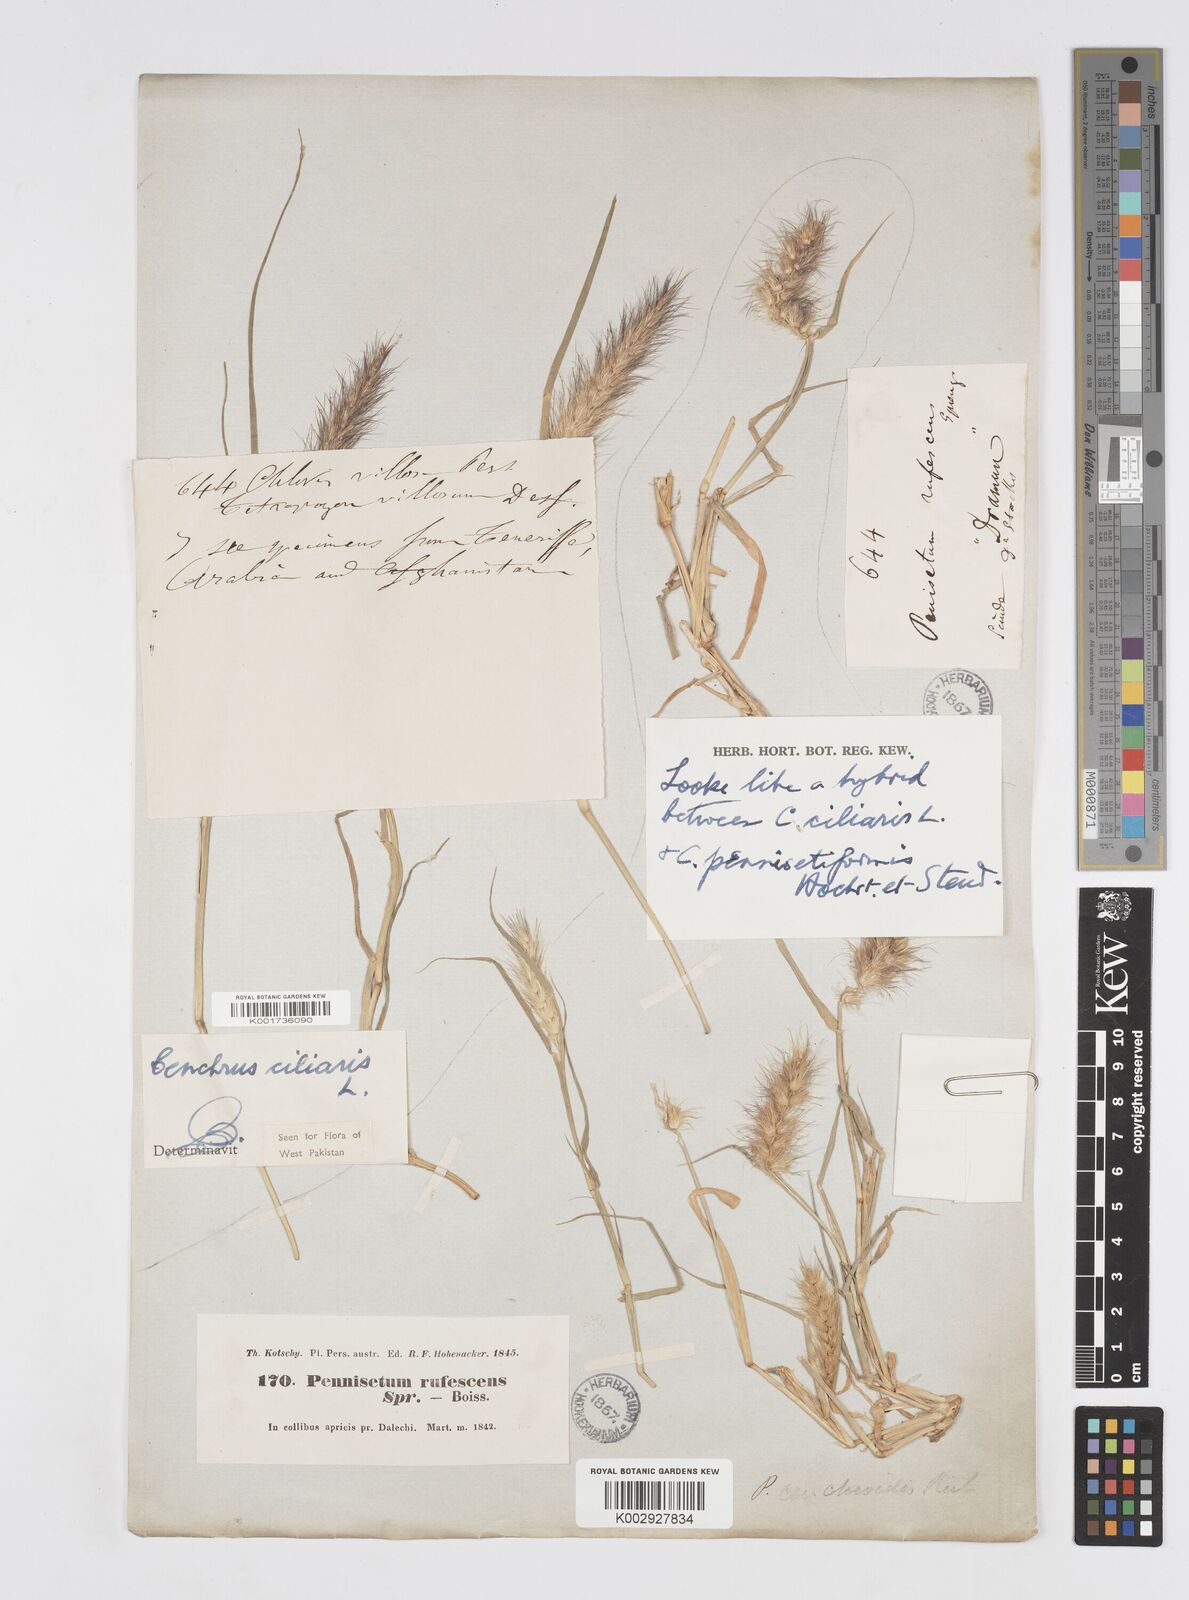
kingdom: Plantae
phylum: Tracheophyta
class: Liliopsida
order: Poales
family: Poaceae
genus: Cenchrus
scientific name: Cenchrus ciliaris
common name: Buffelgrass
